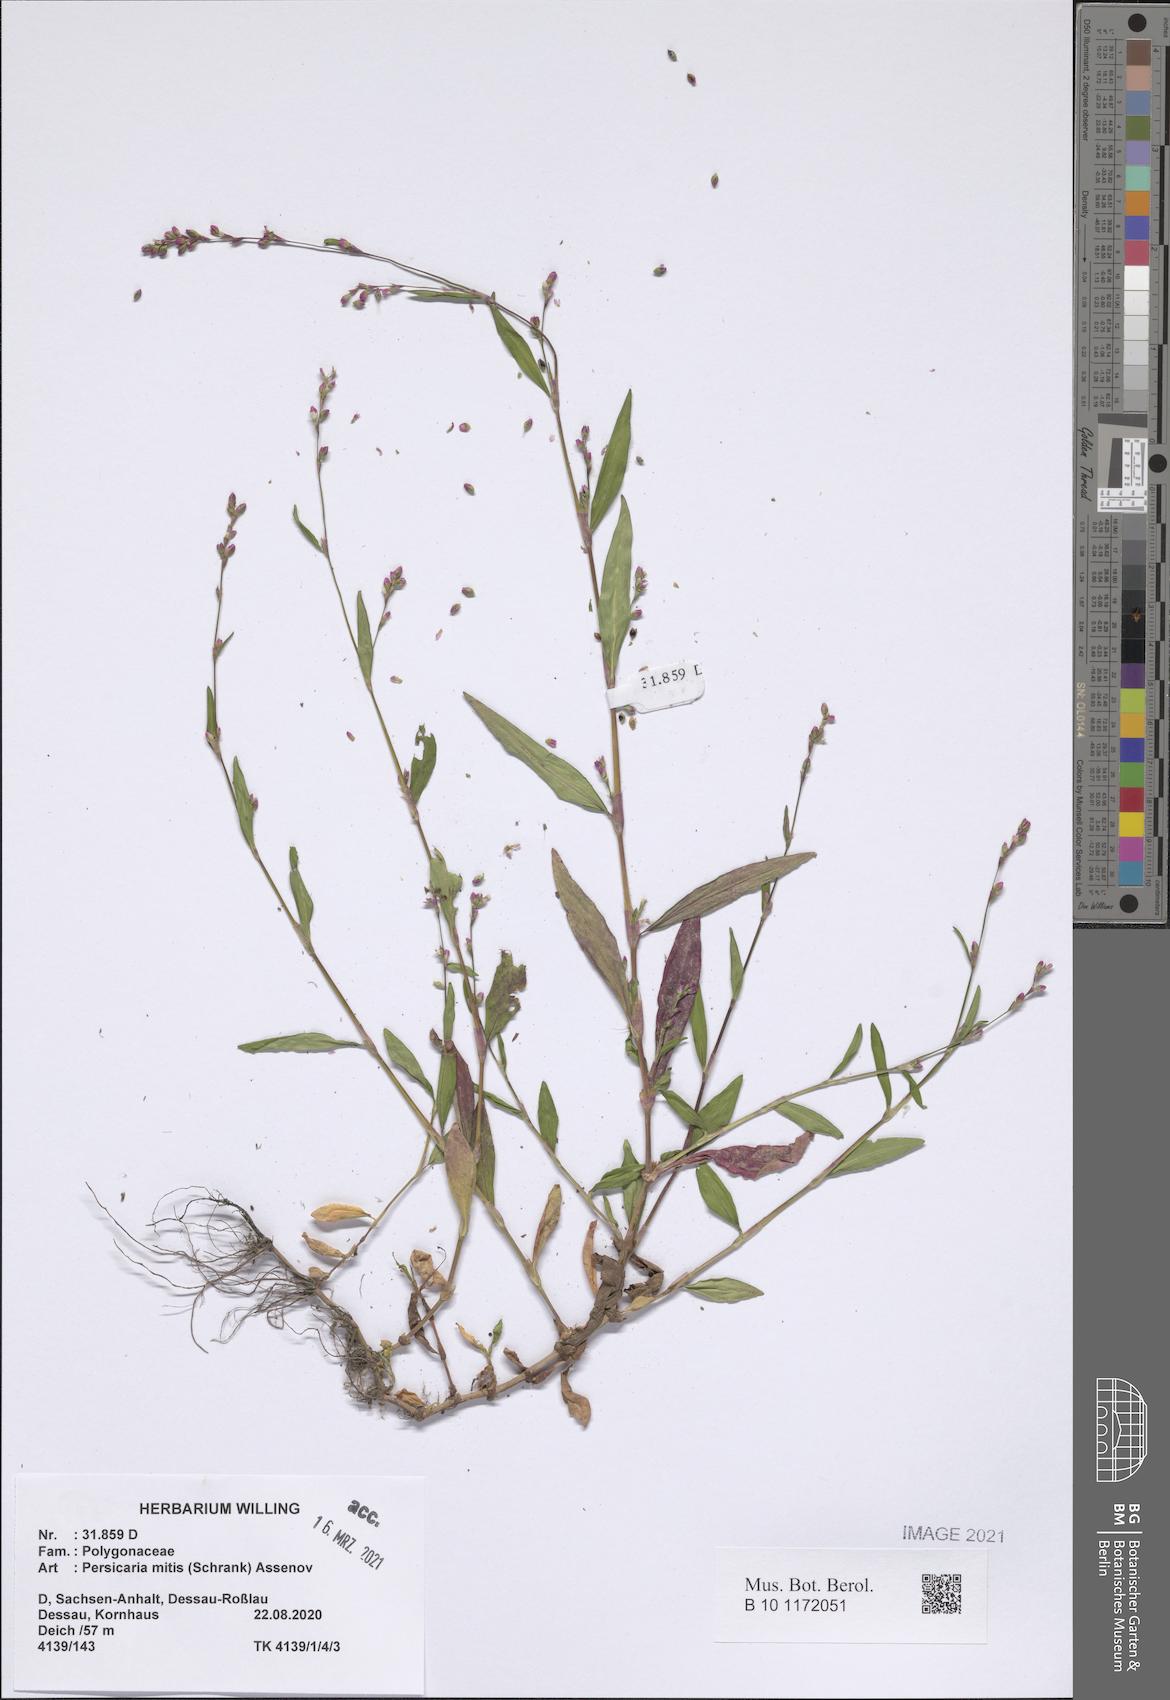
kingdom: Plantae
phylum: Tracheophyta
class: Magnoliopsida
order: Caryophyllales
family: Polygonaceae
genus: Persicaria
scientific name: Persicaria mitis
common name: Tasteless water-pepper
